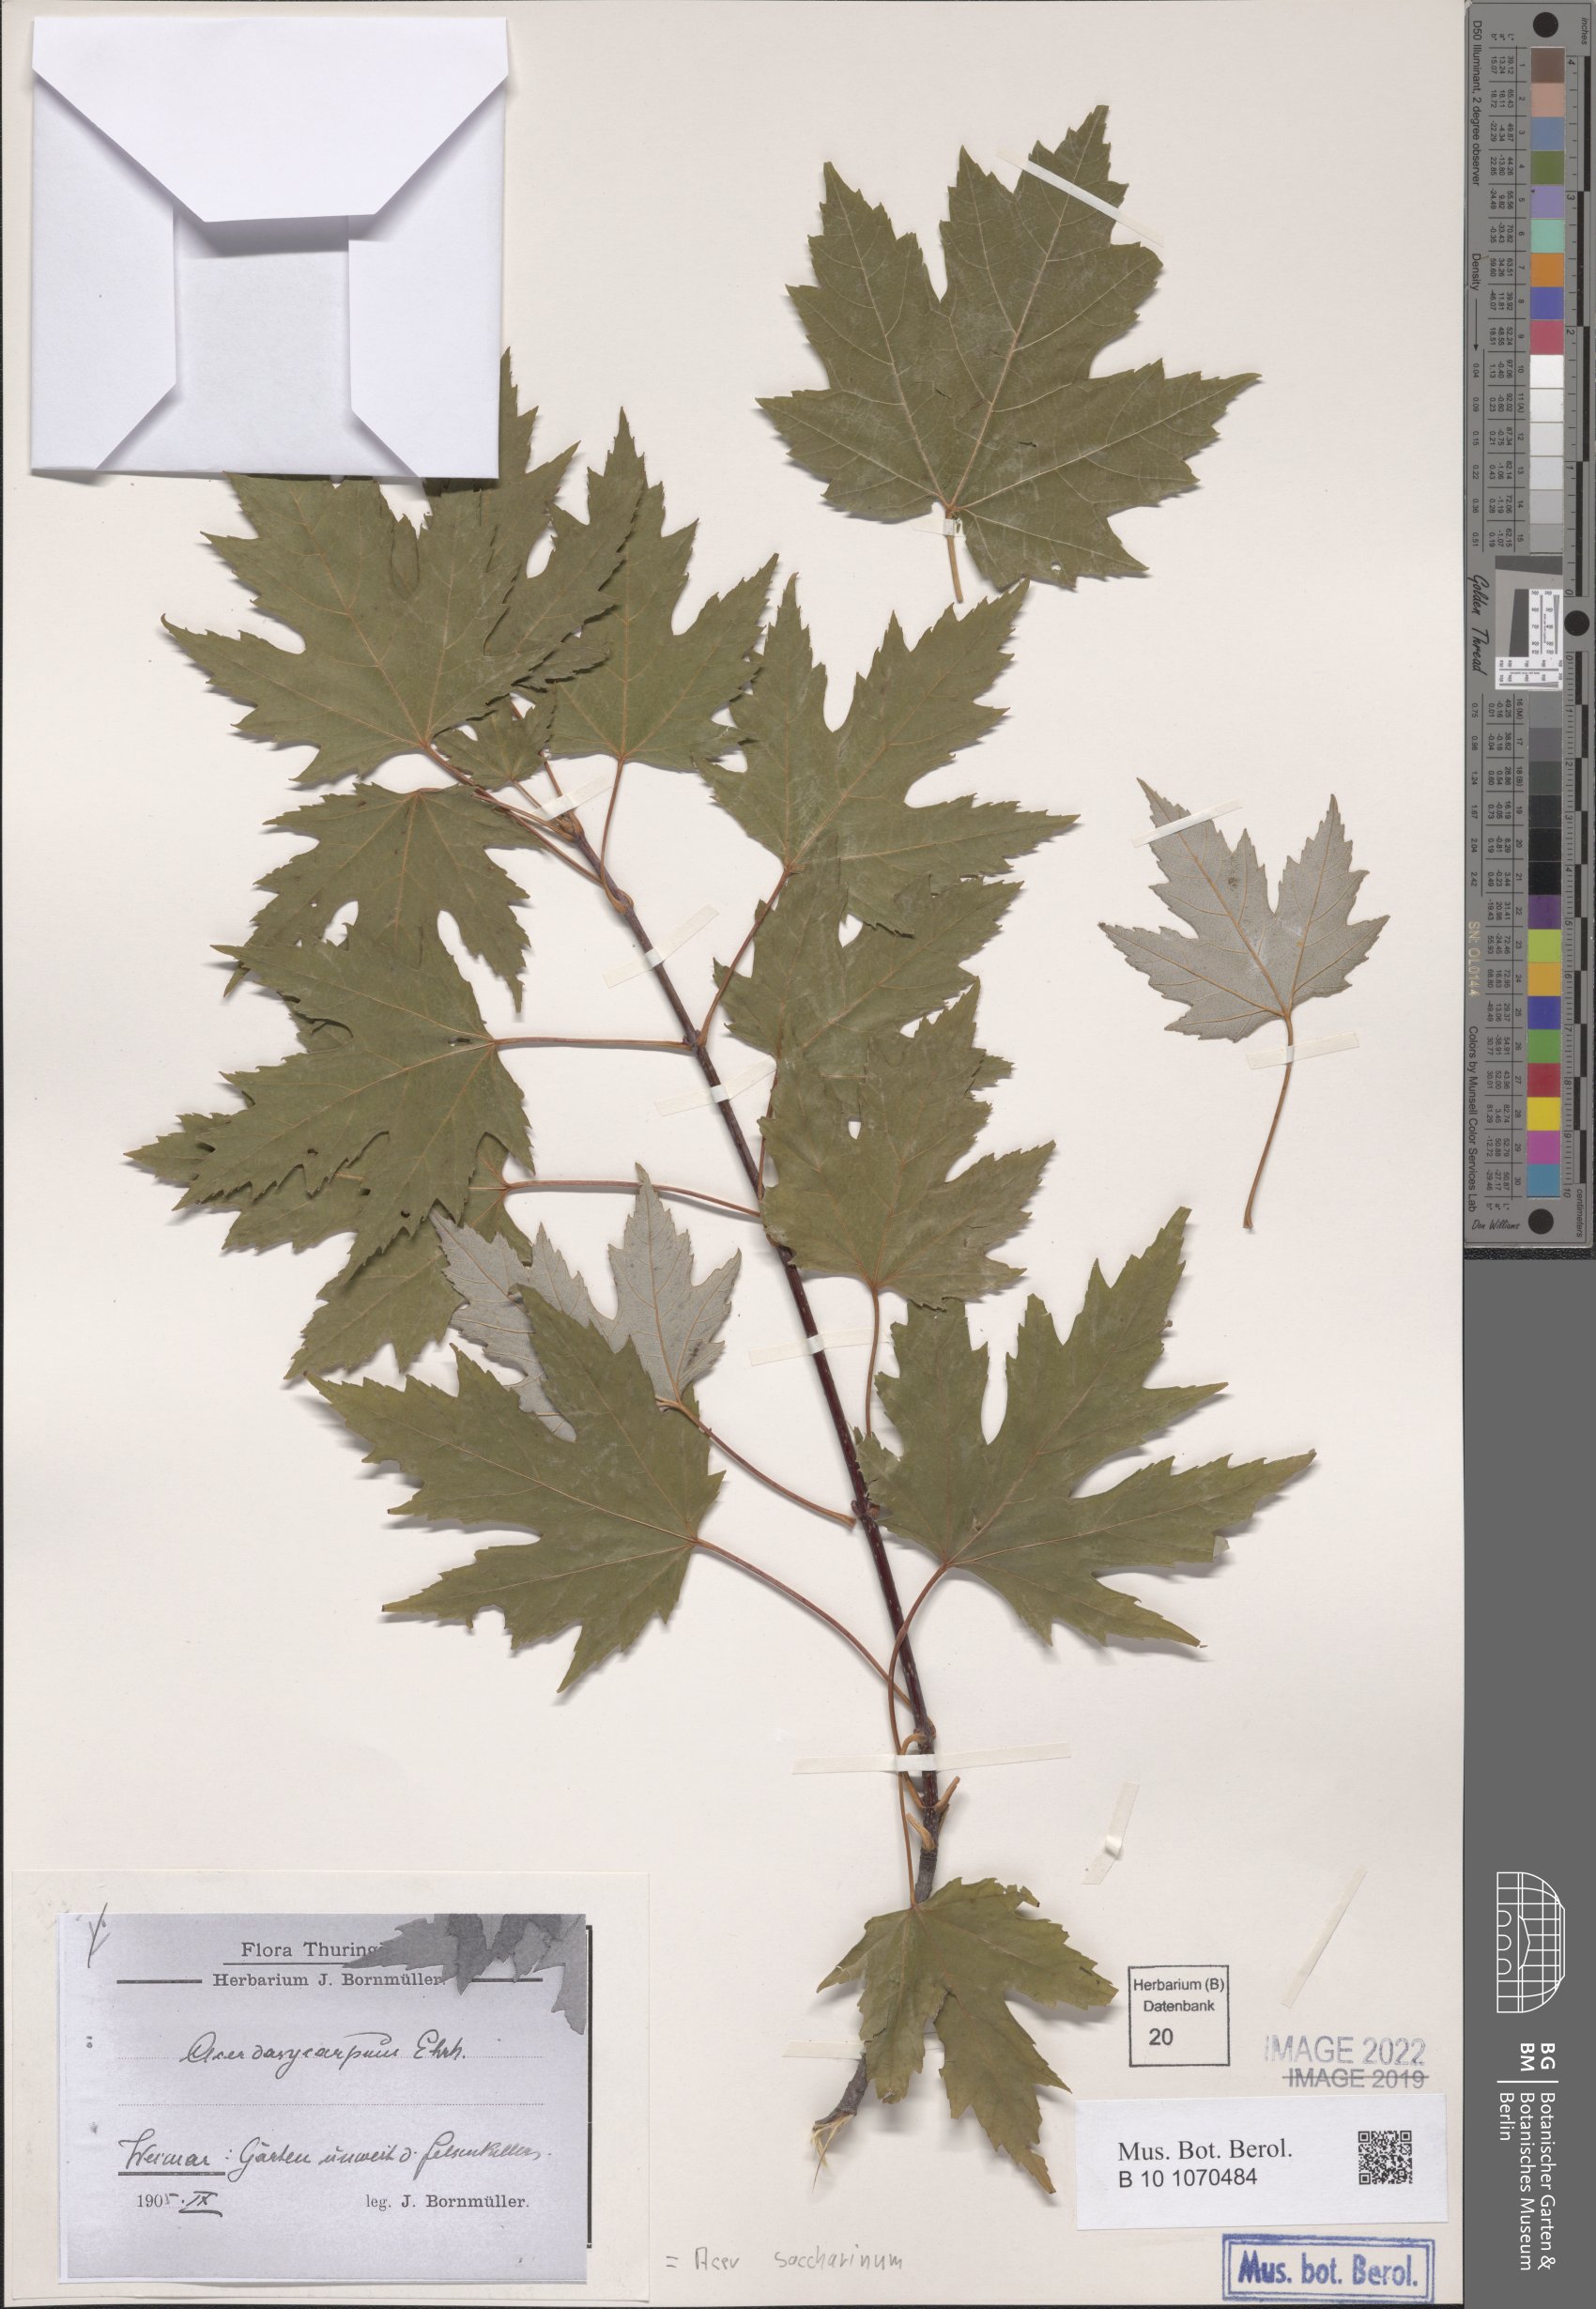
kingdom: Plantae
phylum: Tracheophyta
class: Magnoliopsida
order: Sapindales
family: Sapindaceae
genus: Acer
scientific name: Acer saccharinum
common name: Silver maple
